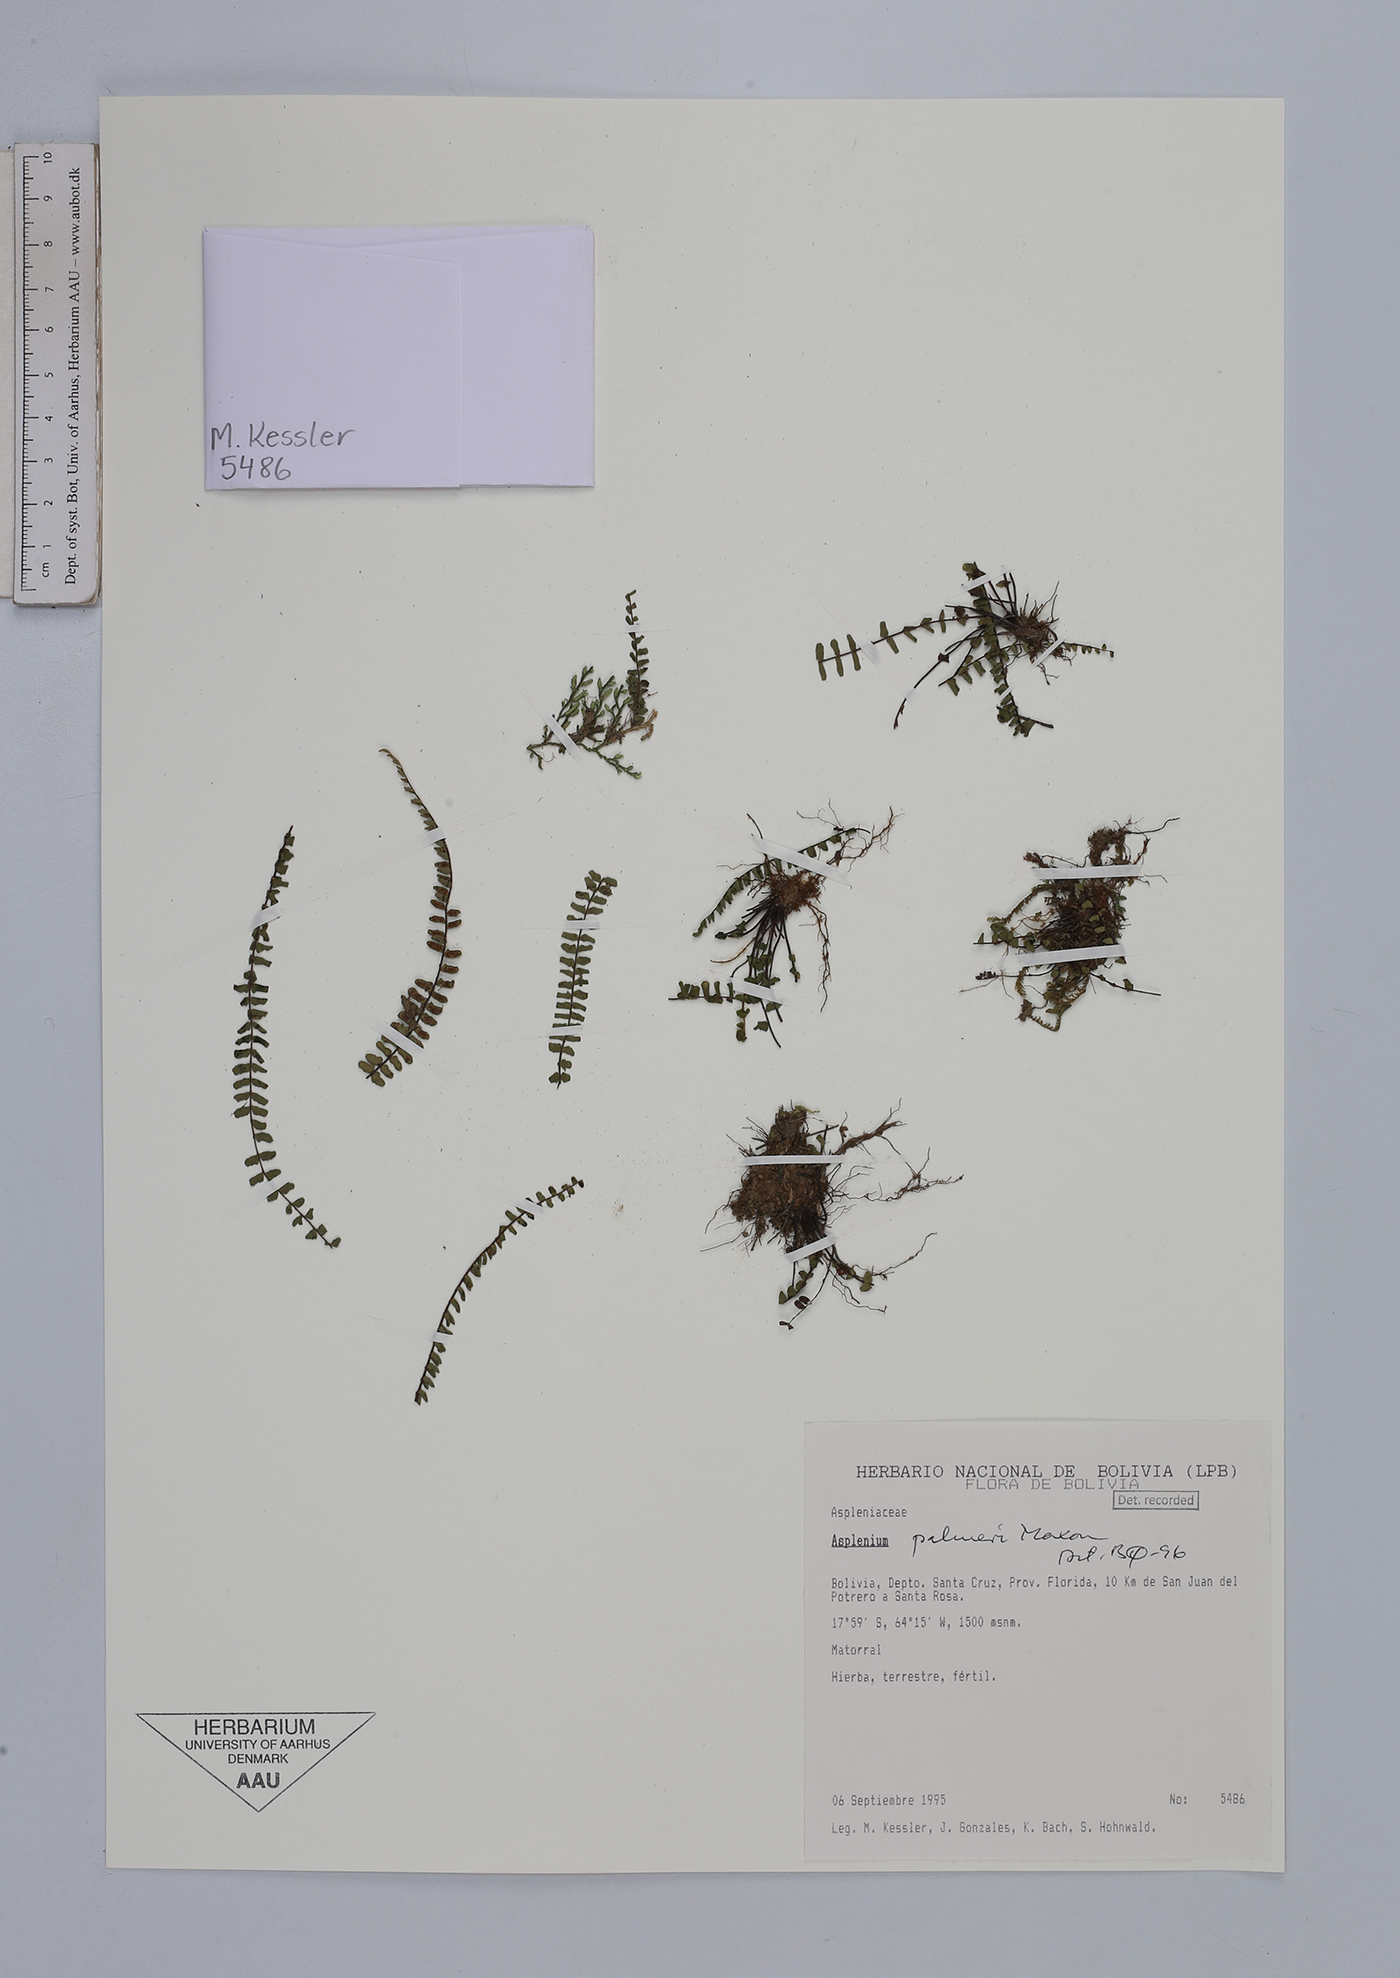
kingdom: Plantae
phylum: Tracheophyta
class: Polypodiopsida
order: Polypodiales
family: Aspleniaceae
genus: Asplenium
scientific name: Asplenium palmeri
